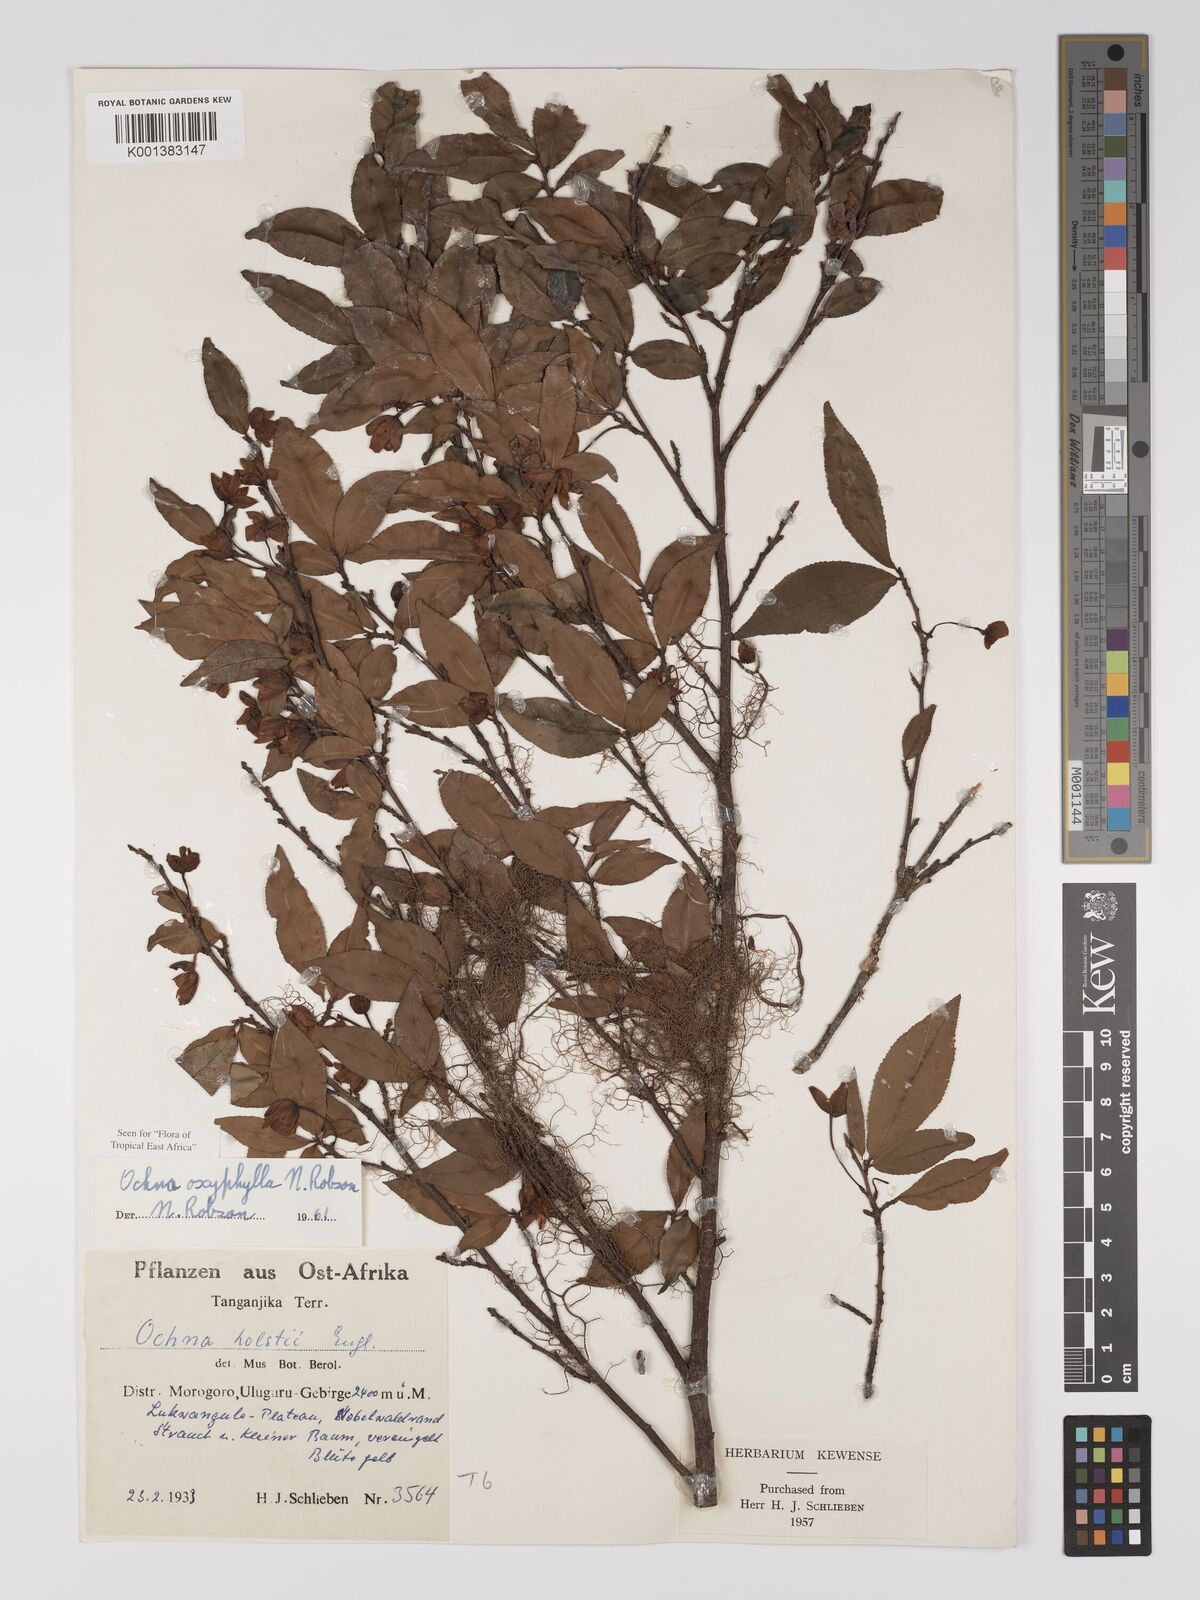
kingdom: Plantae
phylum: Tracheophyta
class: Magnoliopsida
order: Malpighiales
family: Ochnaceae
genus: Ochna
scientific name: Ochna oxyphylla
